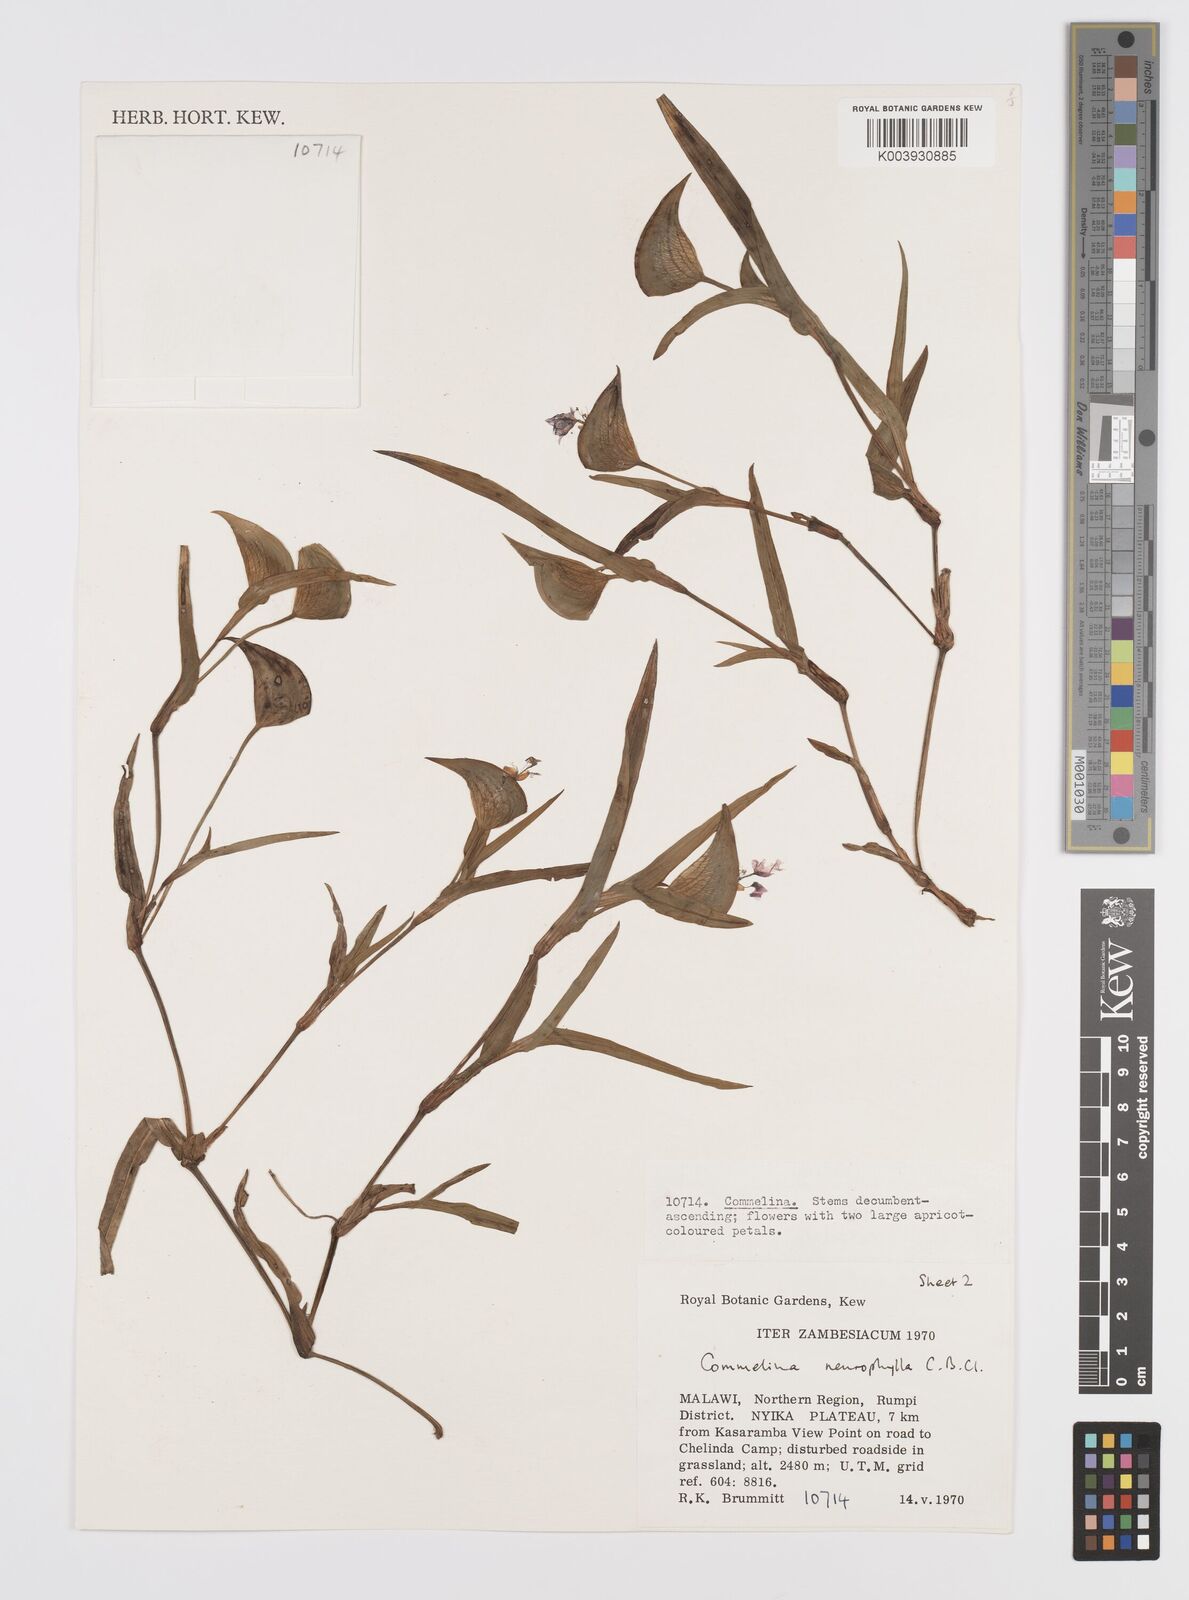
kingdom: Plantae
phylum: Tracheophyta
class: Liliopsida
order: Commelinales
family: Commelinaceae
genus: Commelina
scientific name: Commelina neurophylla
